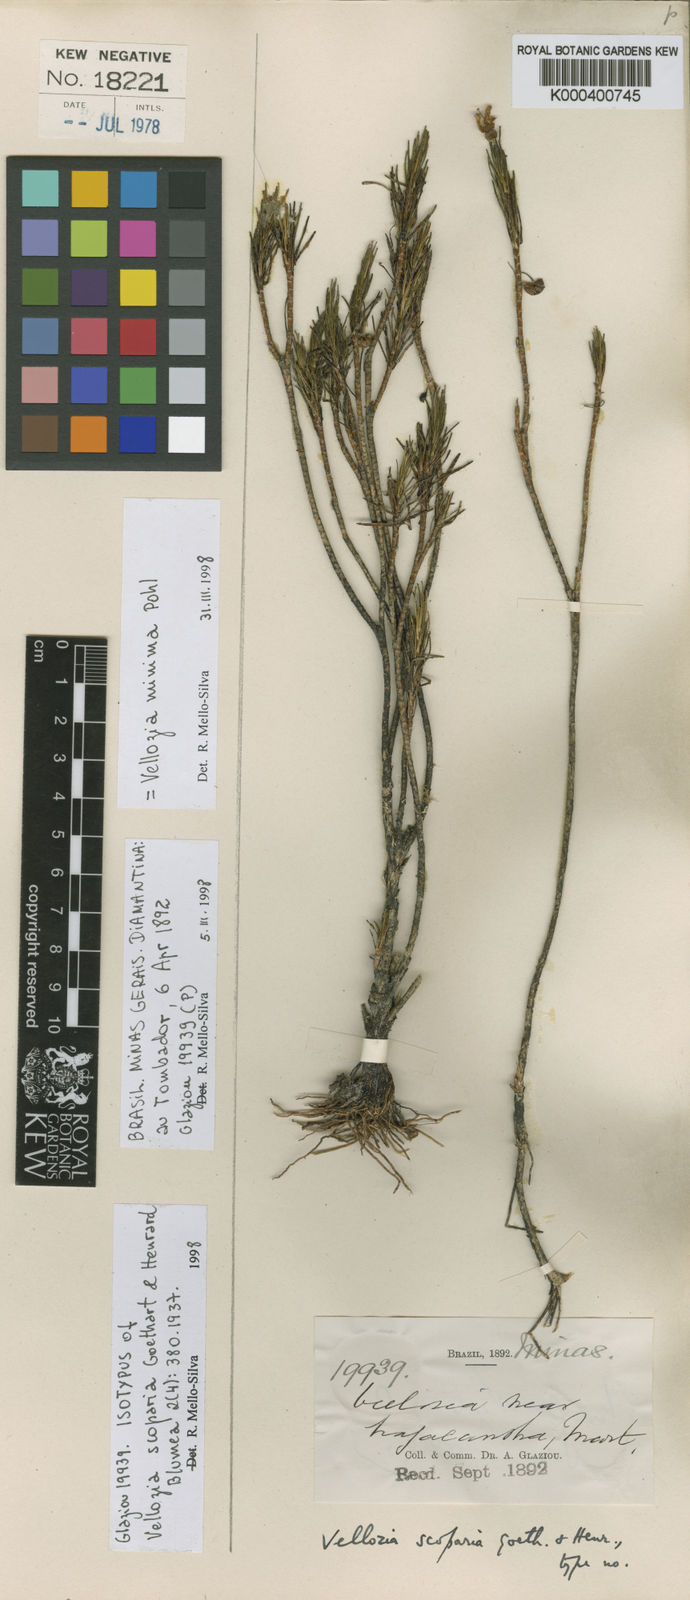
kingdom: Plantae
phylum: Tracheophyta
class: Liliopsida
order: Pandanales
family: Velloziaceae
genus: Vellozia
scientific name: Vellozia minima
